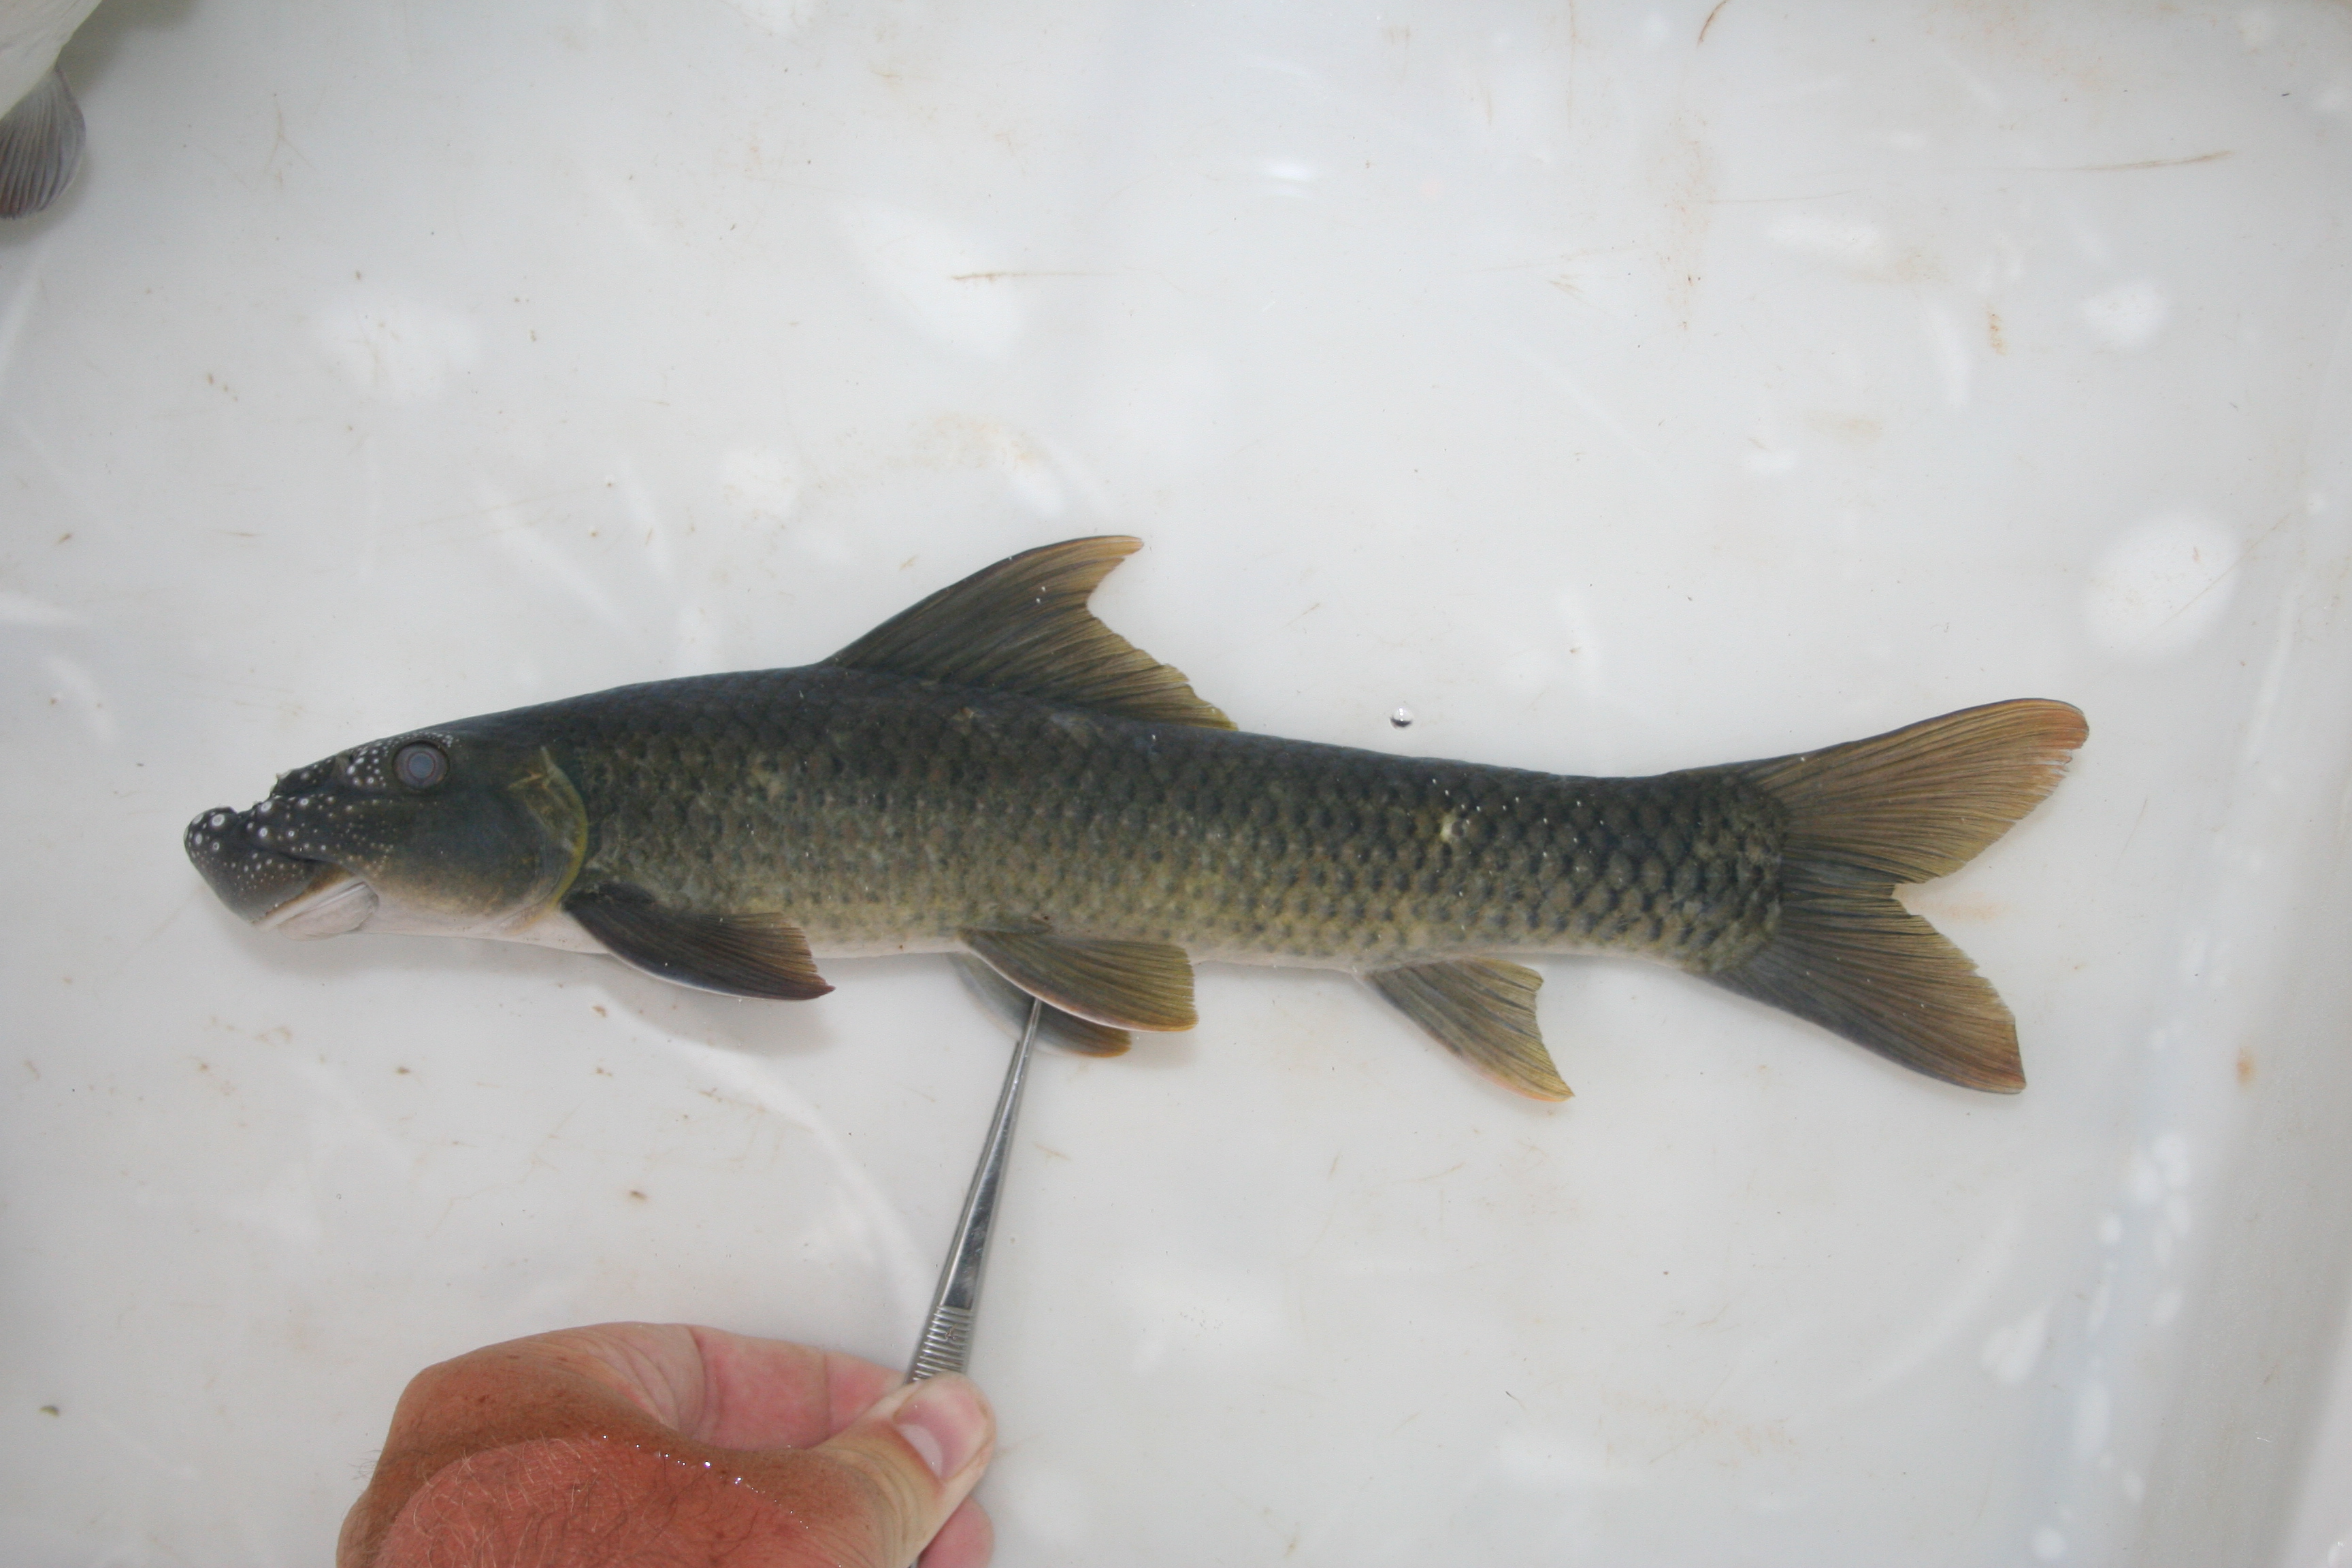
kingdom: Animalia
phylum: Chordata
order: Cypriniformes
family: Cyprinidae
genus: Labeo
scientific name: Labeo
